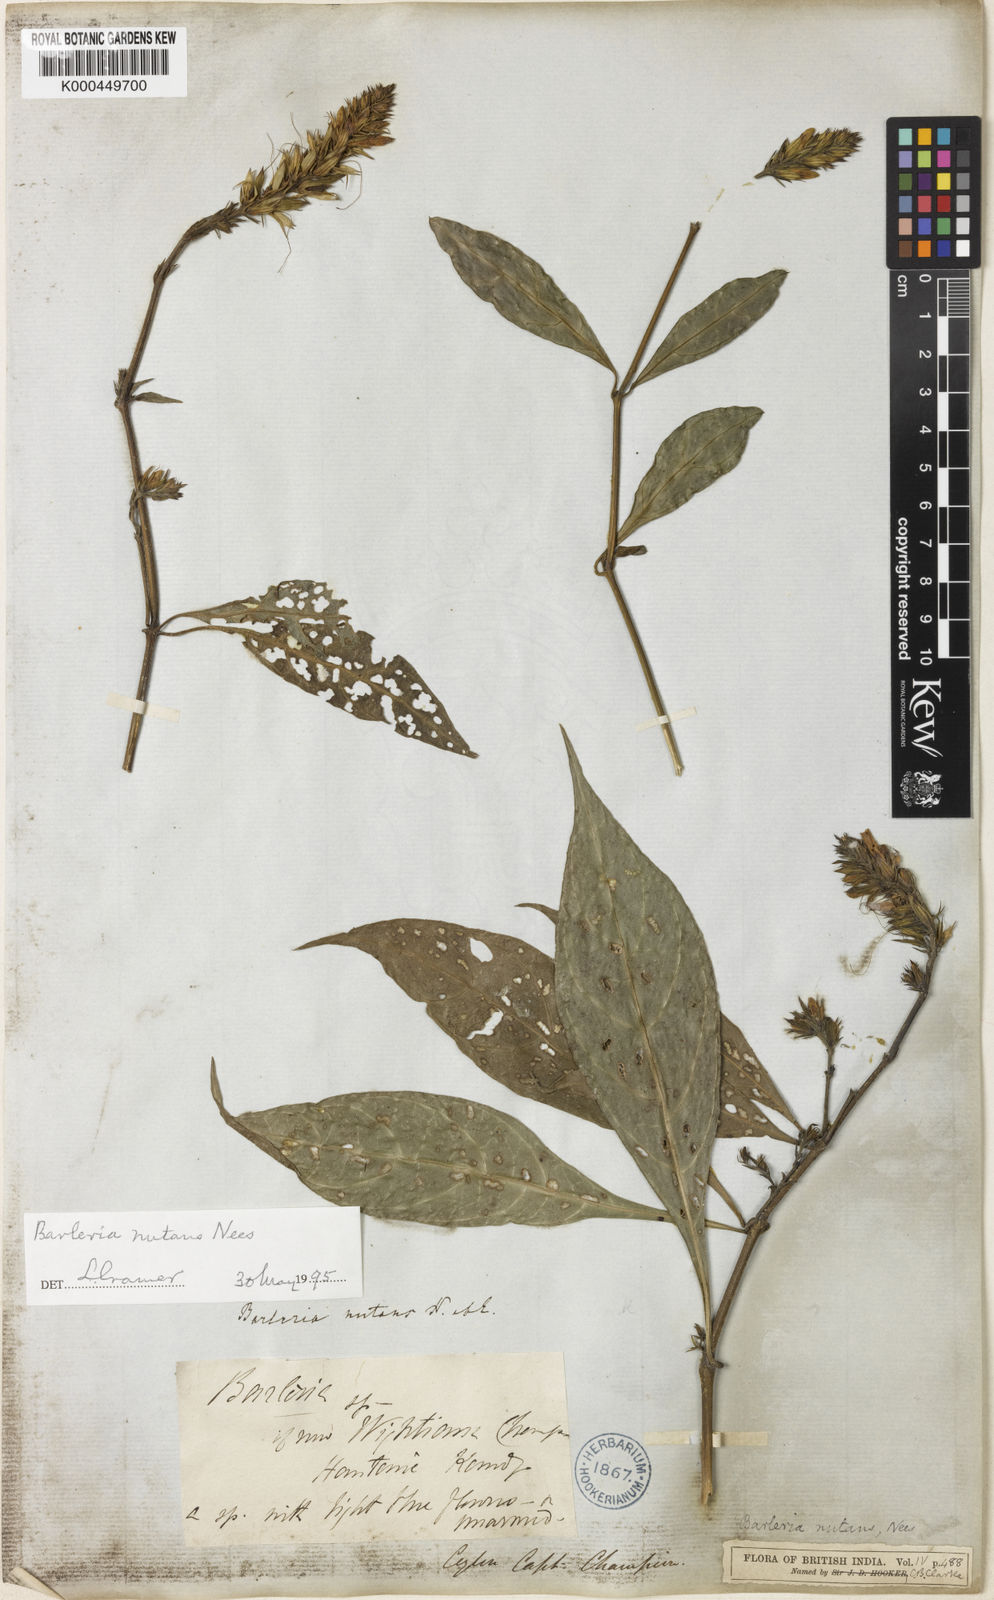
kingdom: Plantae
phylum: Tracheophyta
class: Magnoliopsida
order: Lamiales
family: Acanthaceae
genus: Barleria
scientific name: Barleria courtallica
